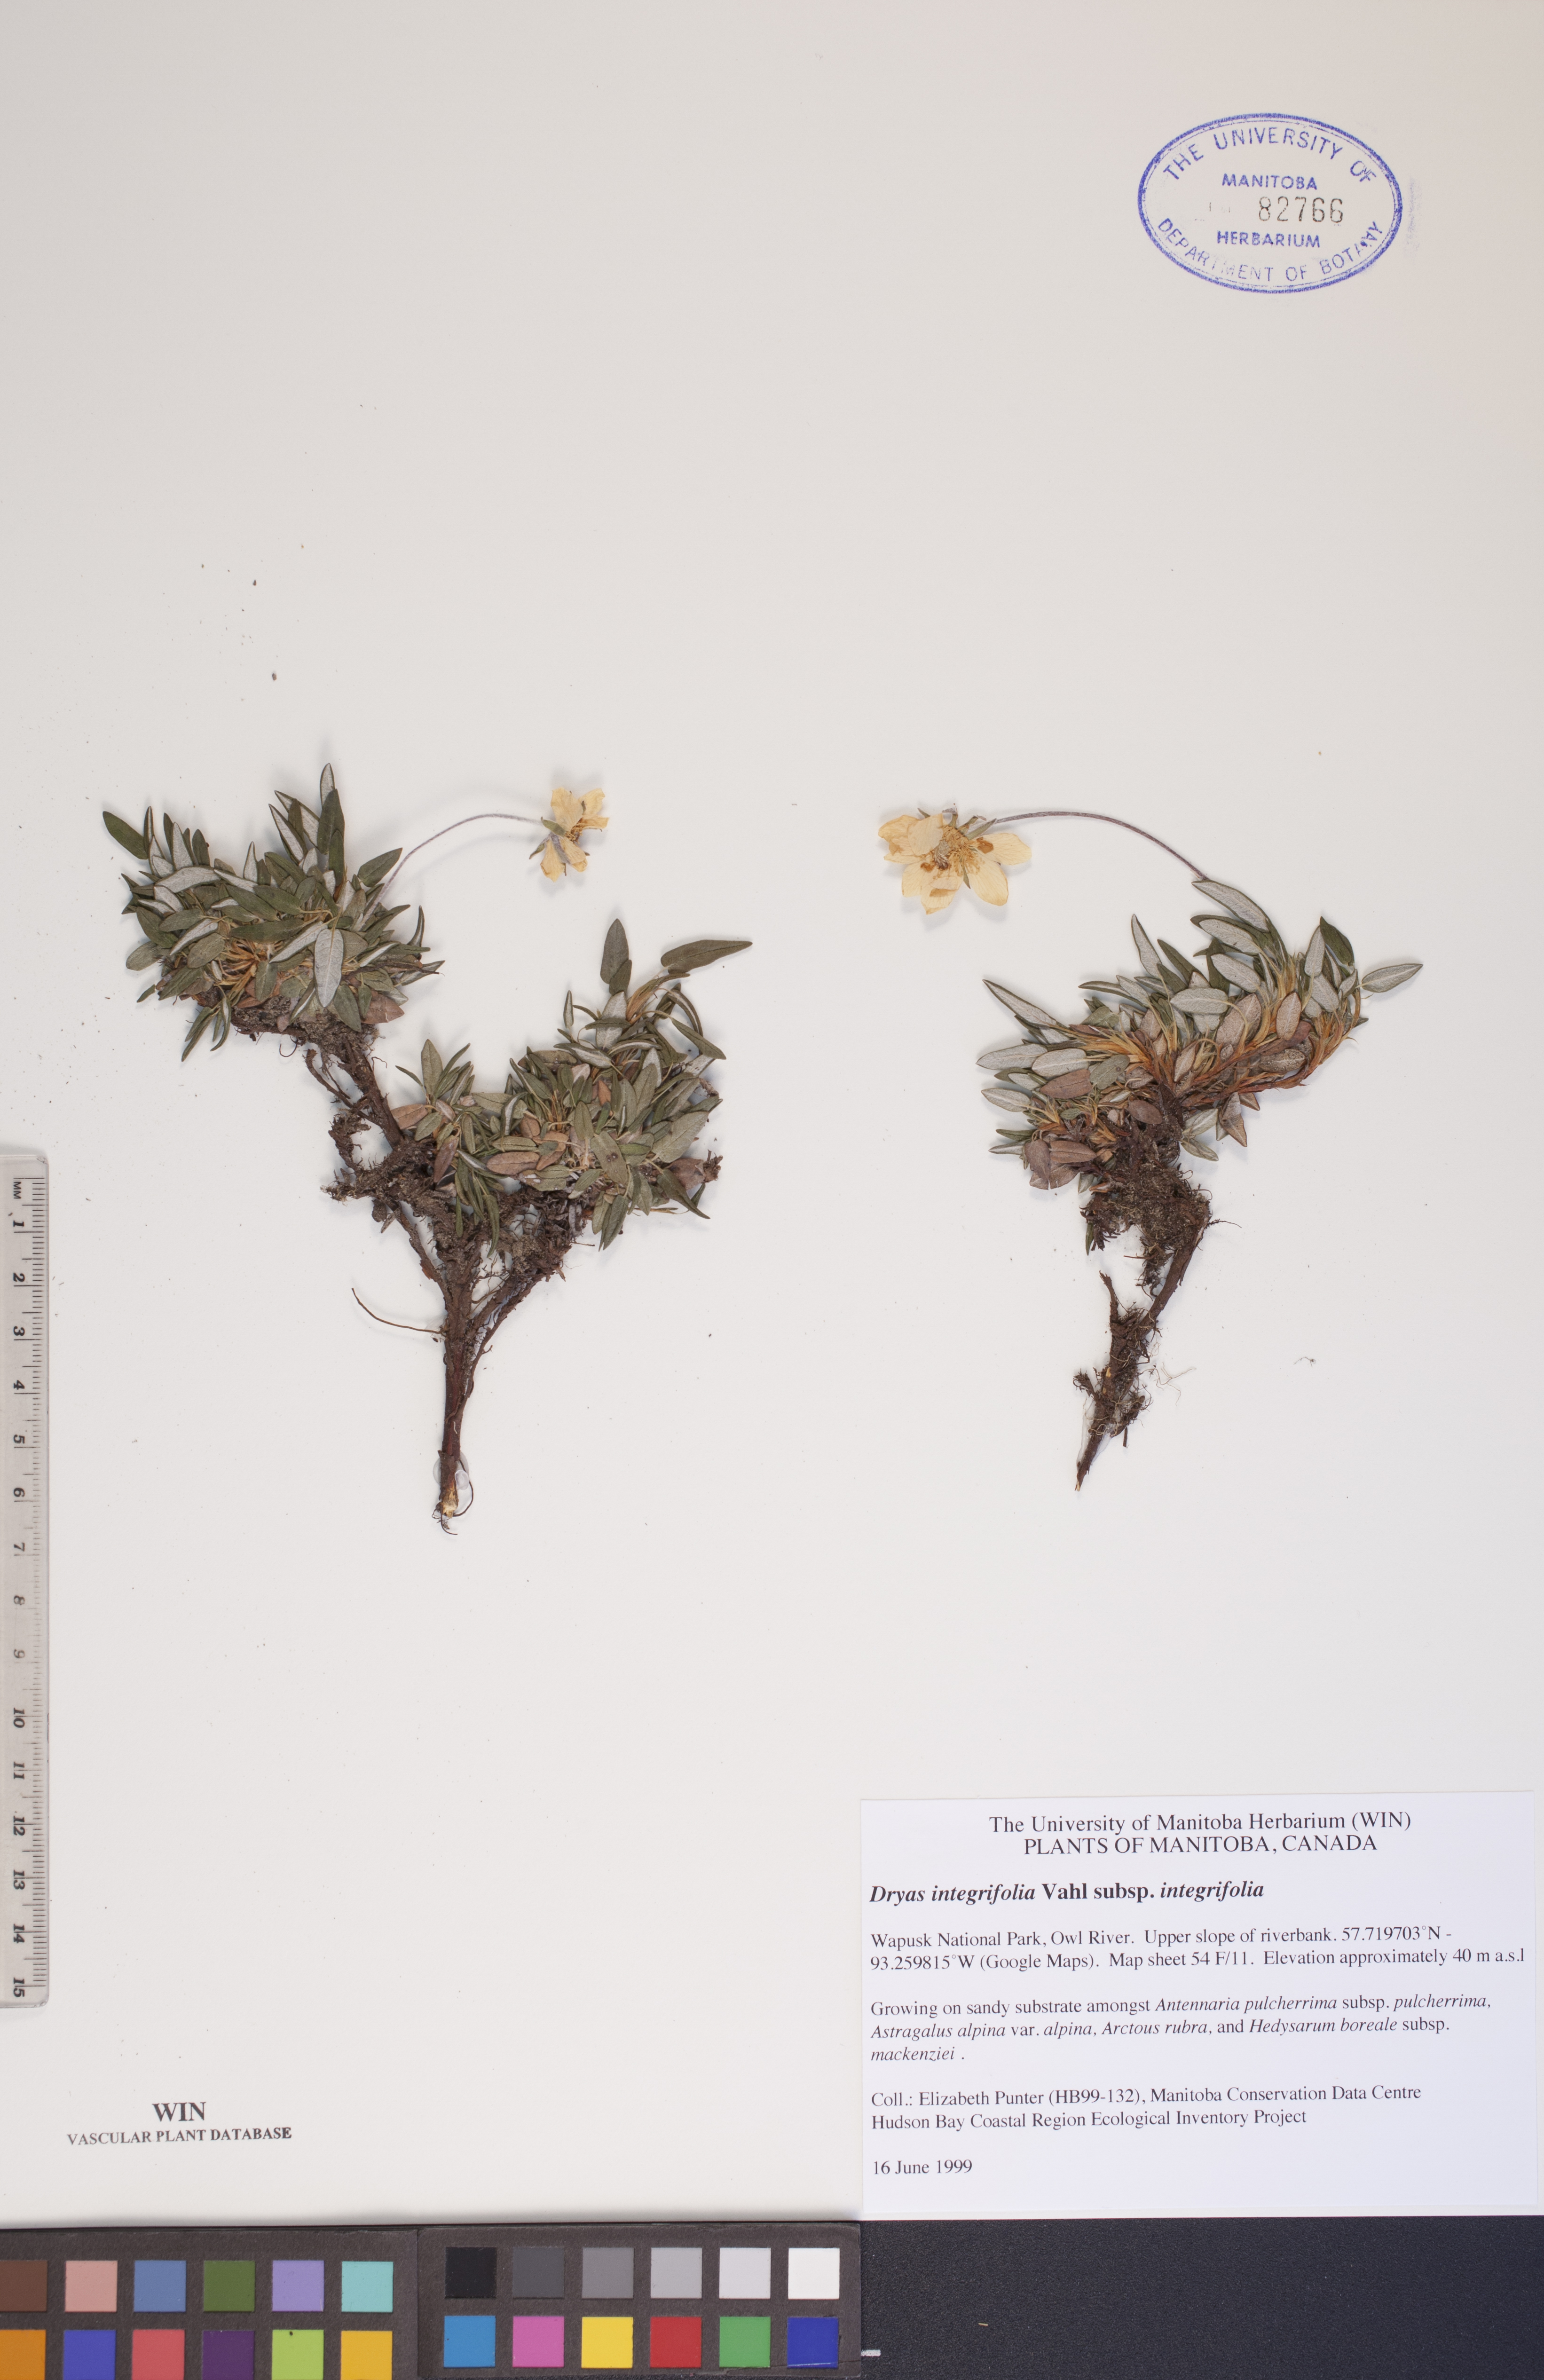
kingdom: Plantae
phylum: Tracheophyta
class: Magnoliopsida
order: Rosales
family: Rosaceae
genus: Dryas
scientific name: Dryas integrifolia
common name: Entire-leaved mountain avens
